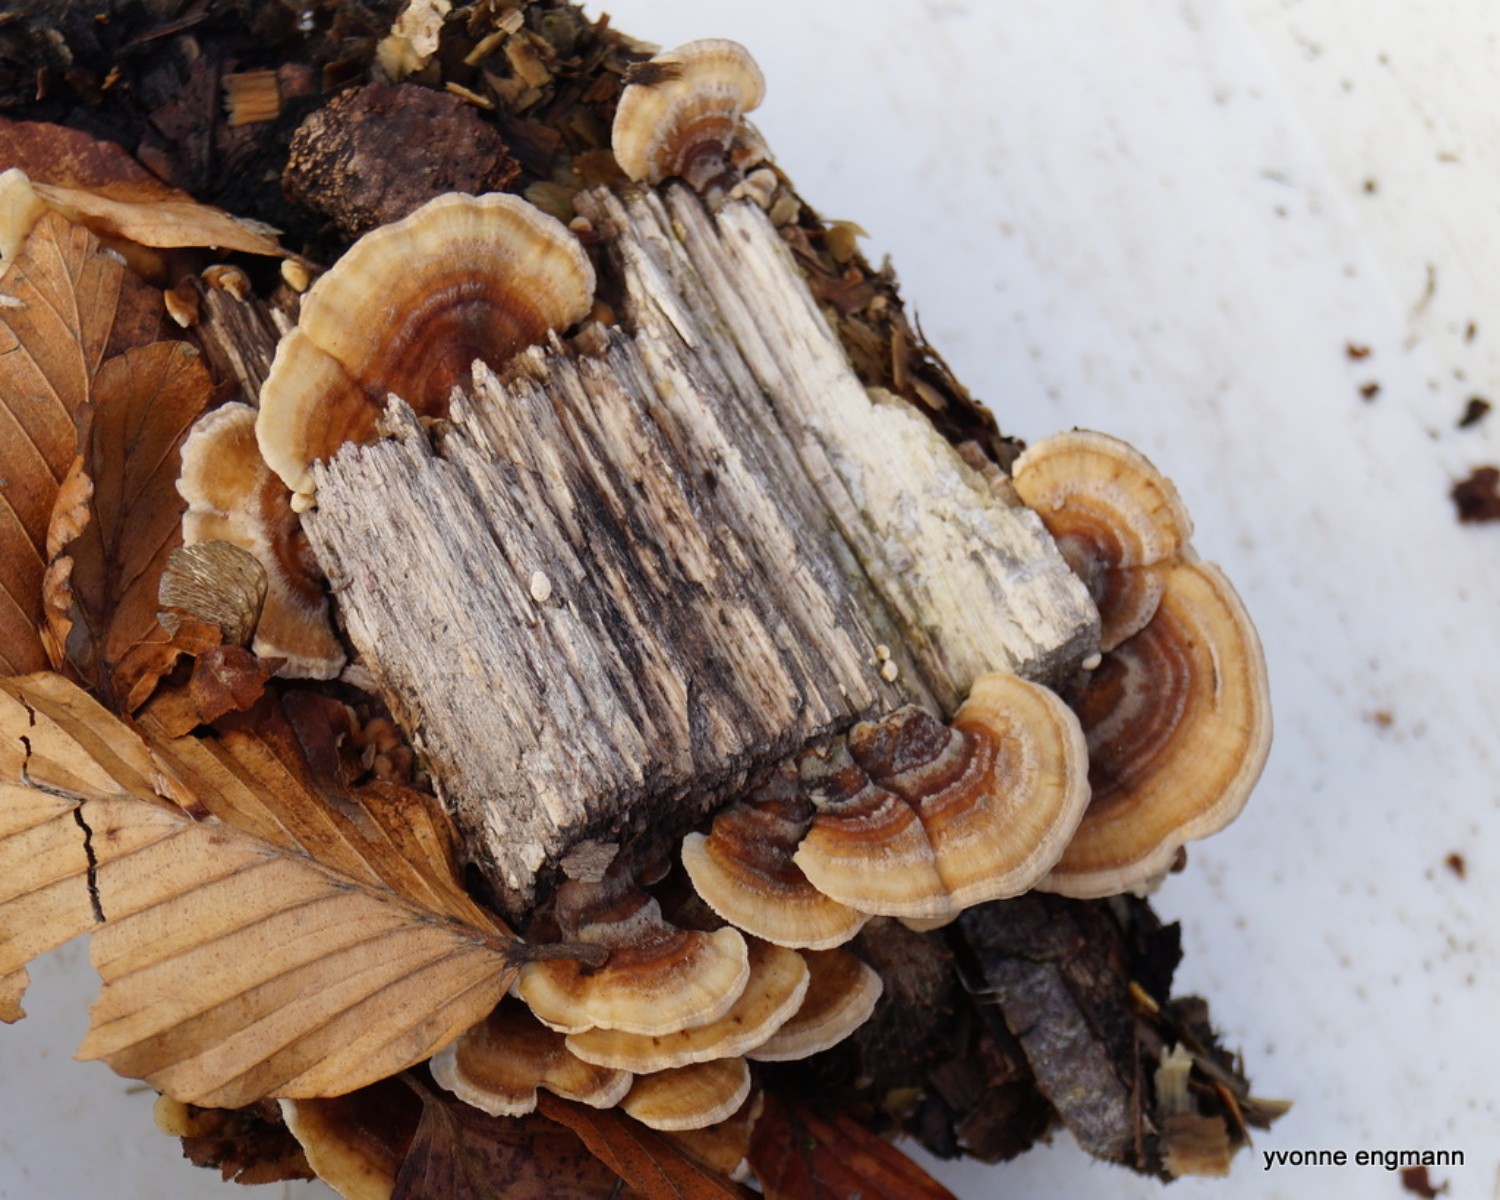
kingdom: Fungi
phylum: Basidiomycota
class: Agaricomycetes
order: Polyporales
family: Polyporaceae
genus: Trametes
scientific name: Trametes versicolor
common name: broget læderporesvamp
